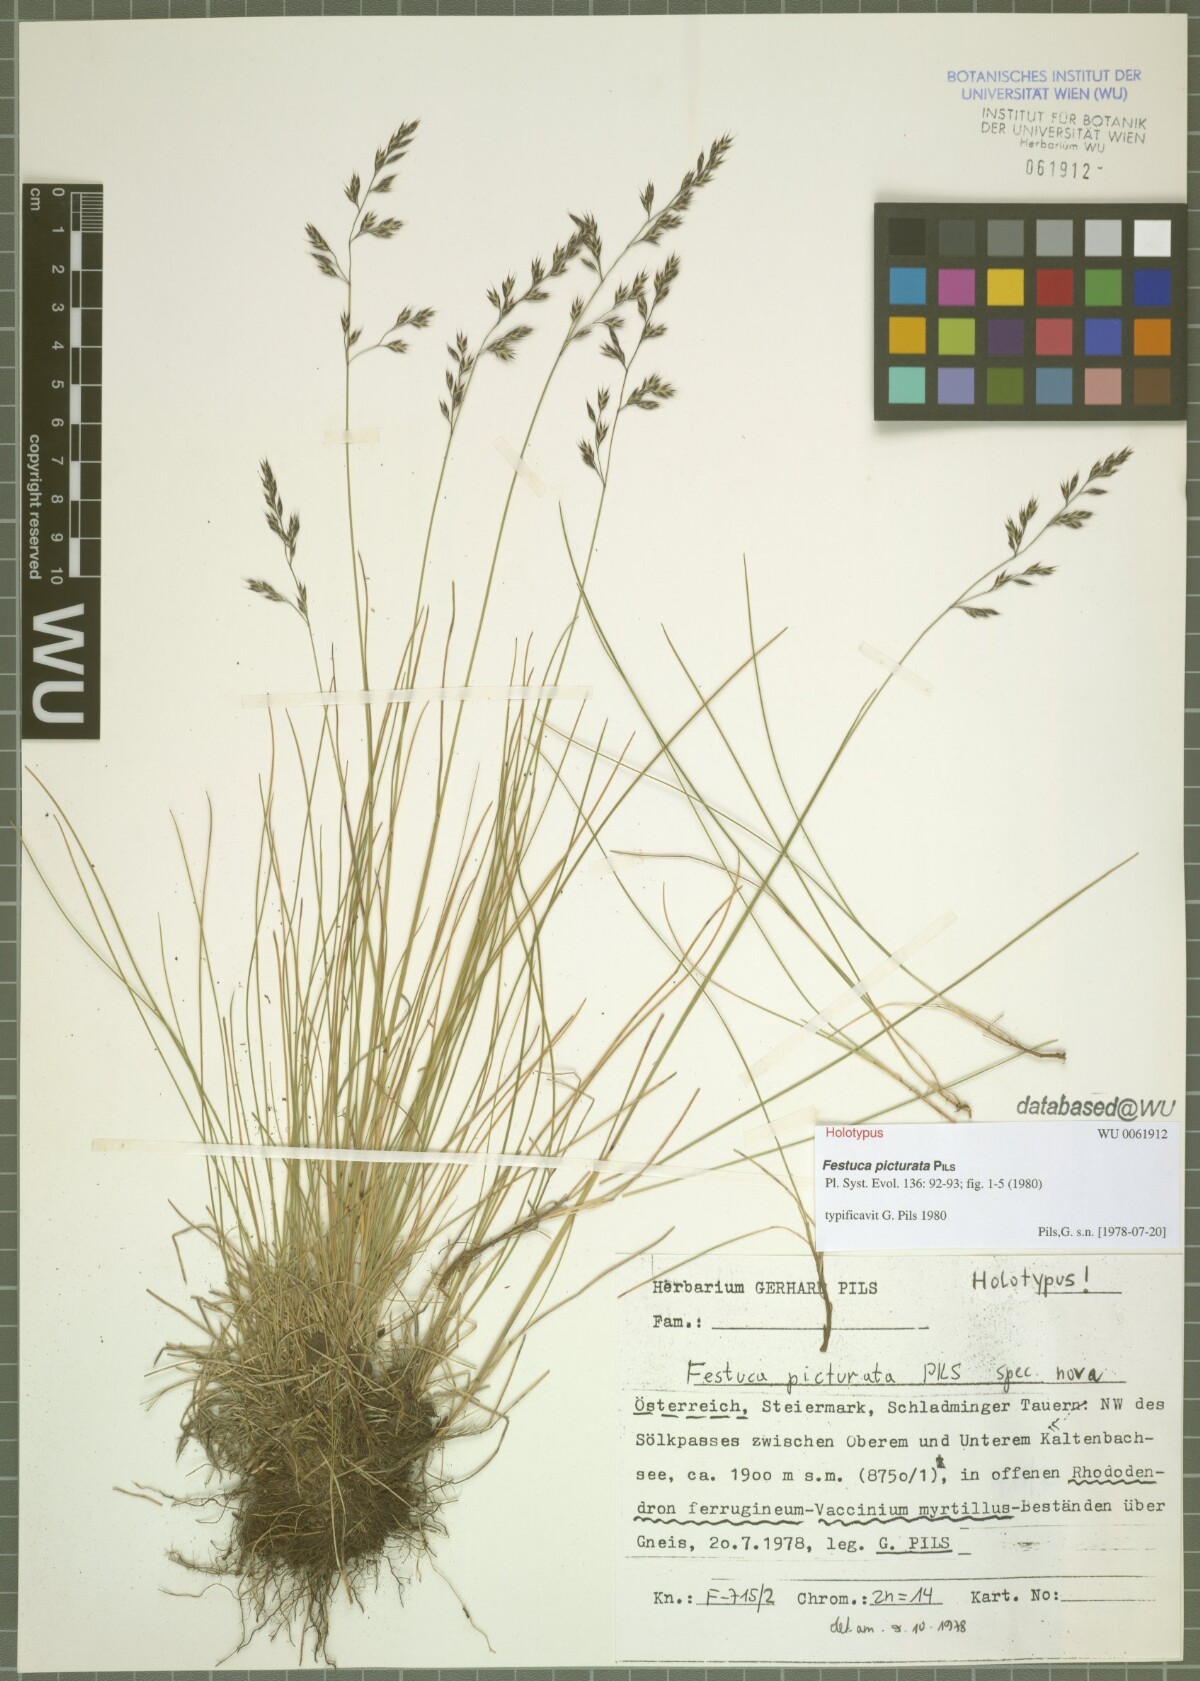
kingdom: Plantae
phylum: Tracheophyta
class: Liliopsida
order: Poales
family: Poaceae
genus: Festuca
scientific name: Festuca picturata
